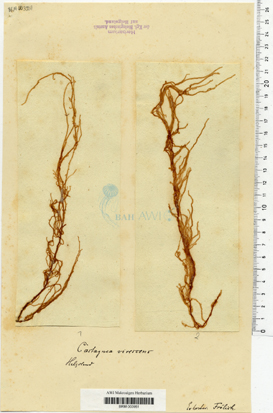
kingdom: Chromista
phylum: Ochrophyta
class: Phaeophyceae
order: Ectocarpales
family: Chordariaceae
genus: Eudesme
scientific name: Eudesme virescens
